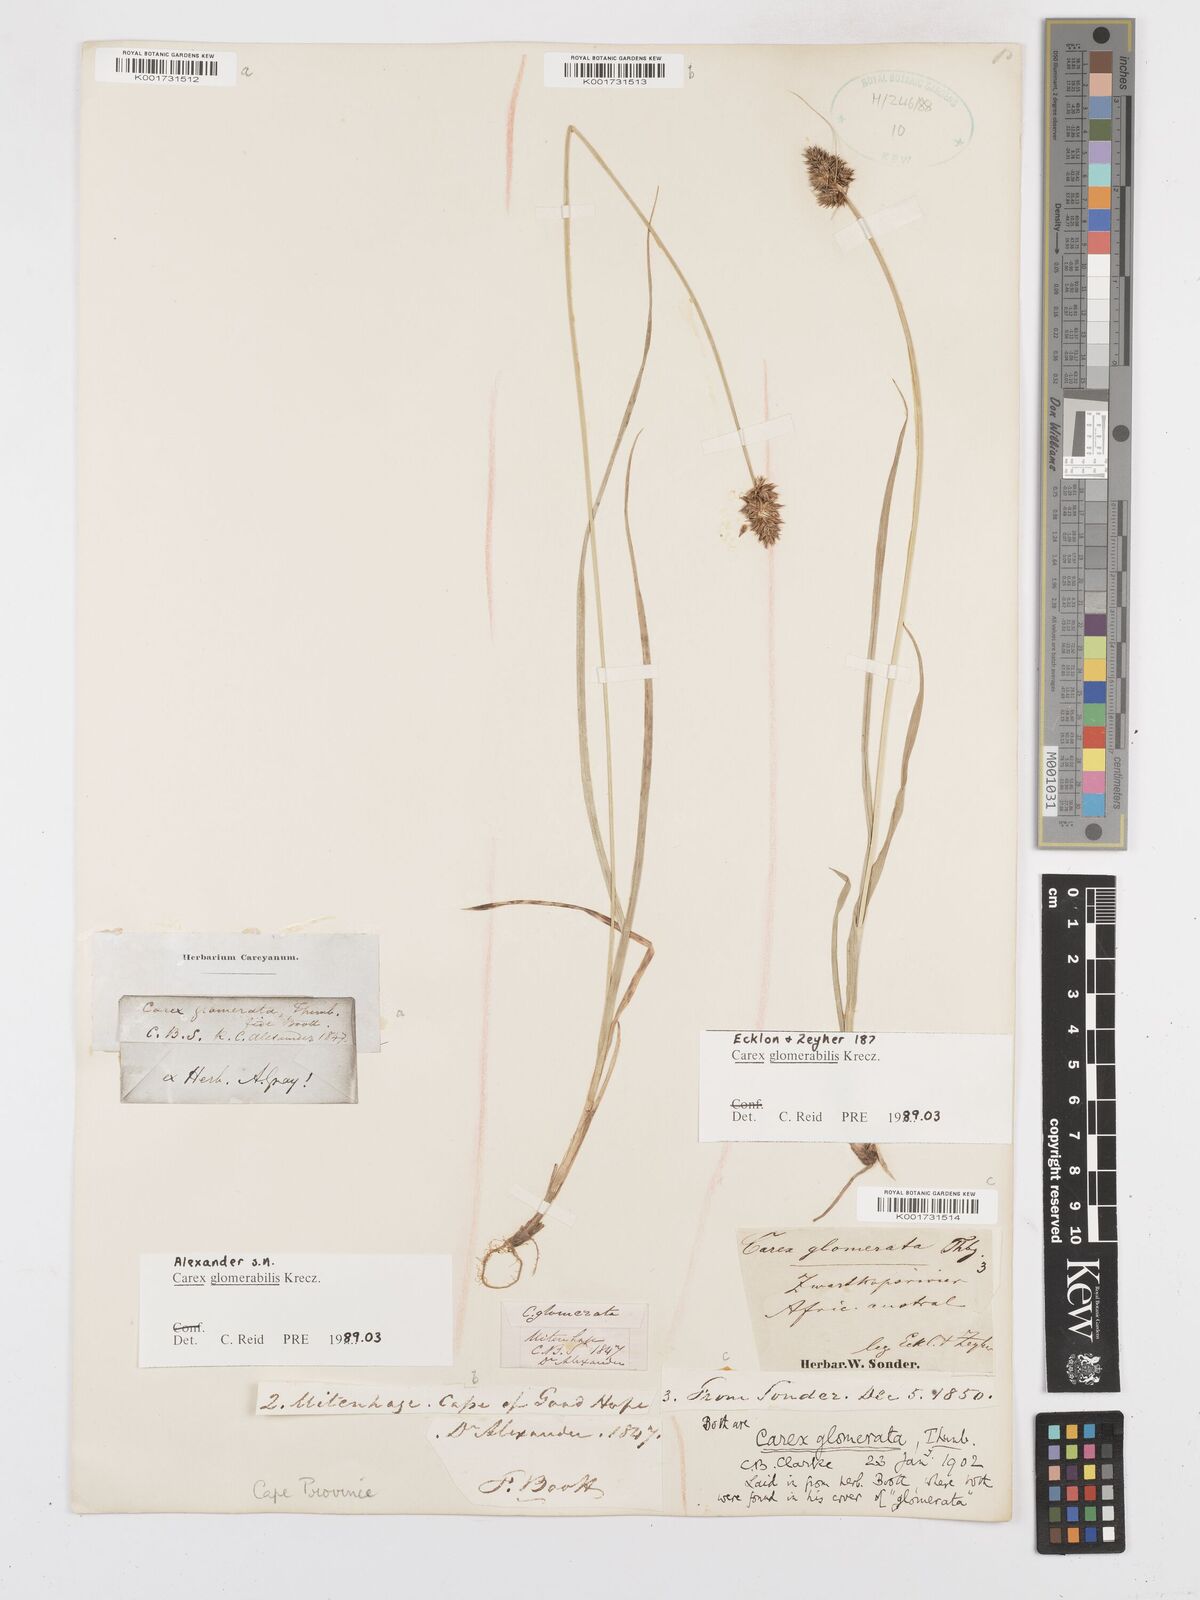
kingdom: Plantae
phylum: Tracheophyta
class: Liliopsida
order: Poales
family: Cyperaceae
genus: Carex
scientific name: Carex glomerata
